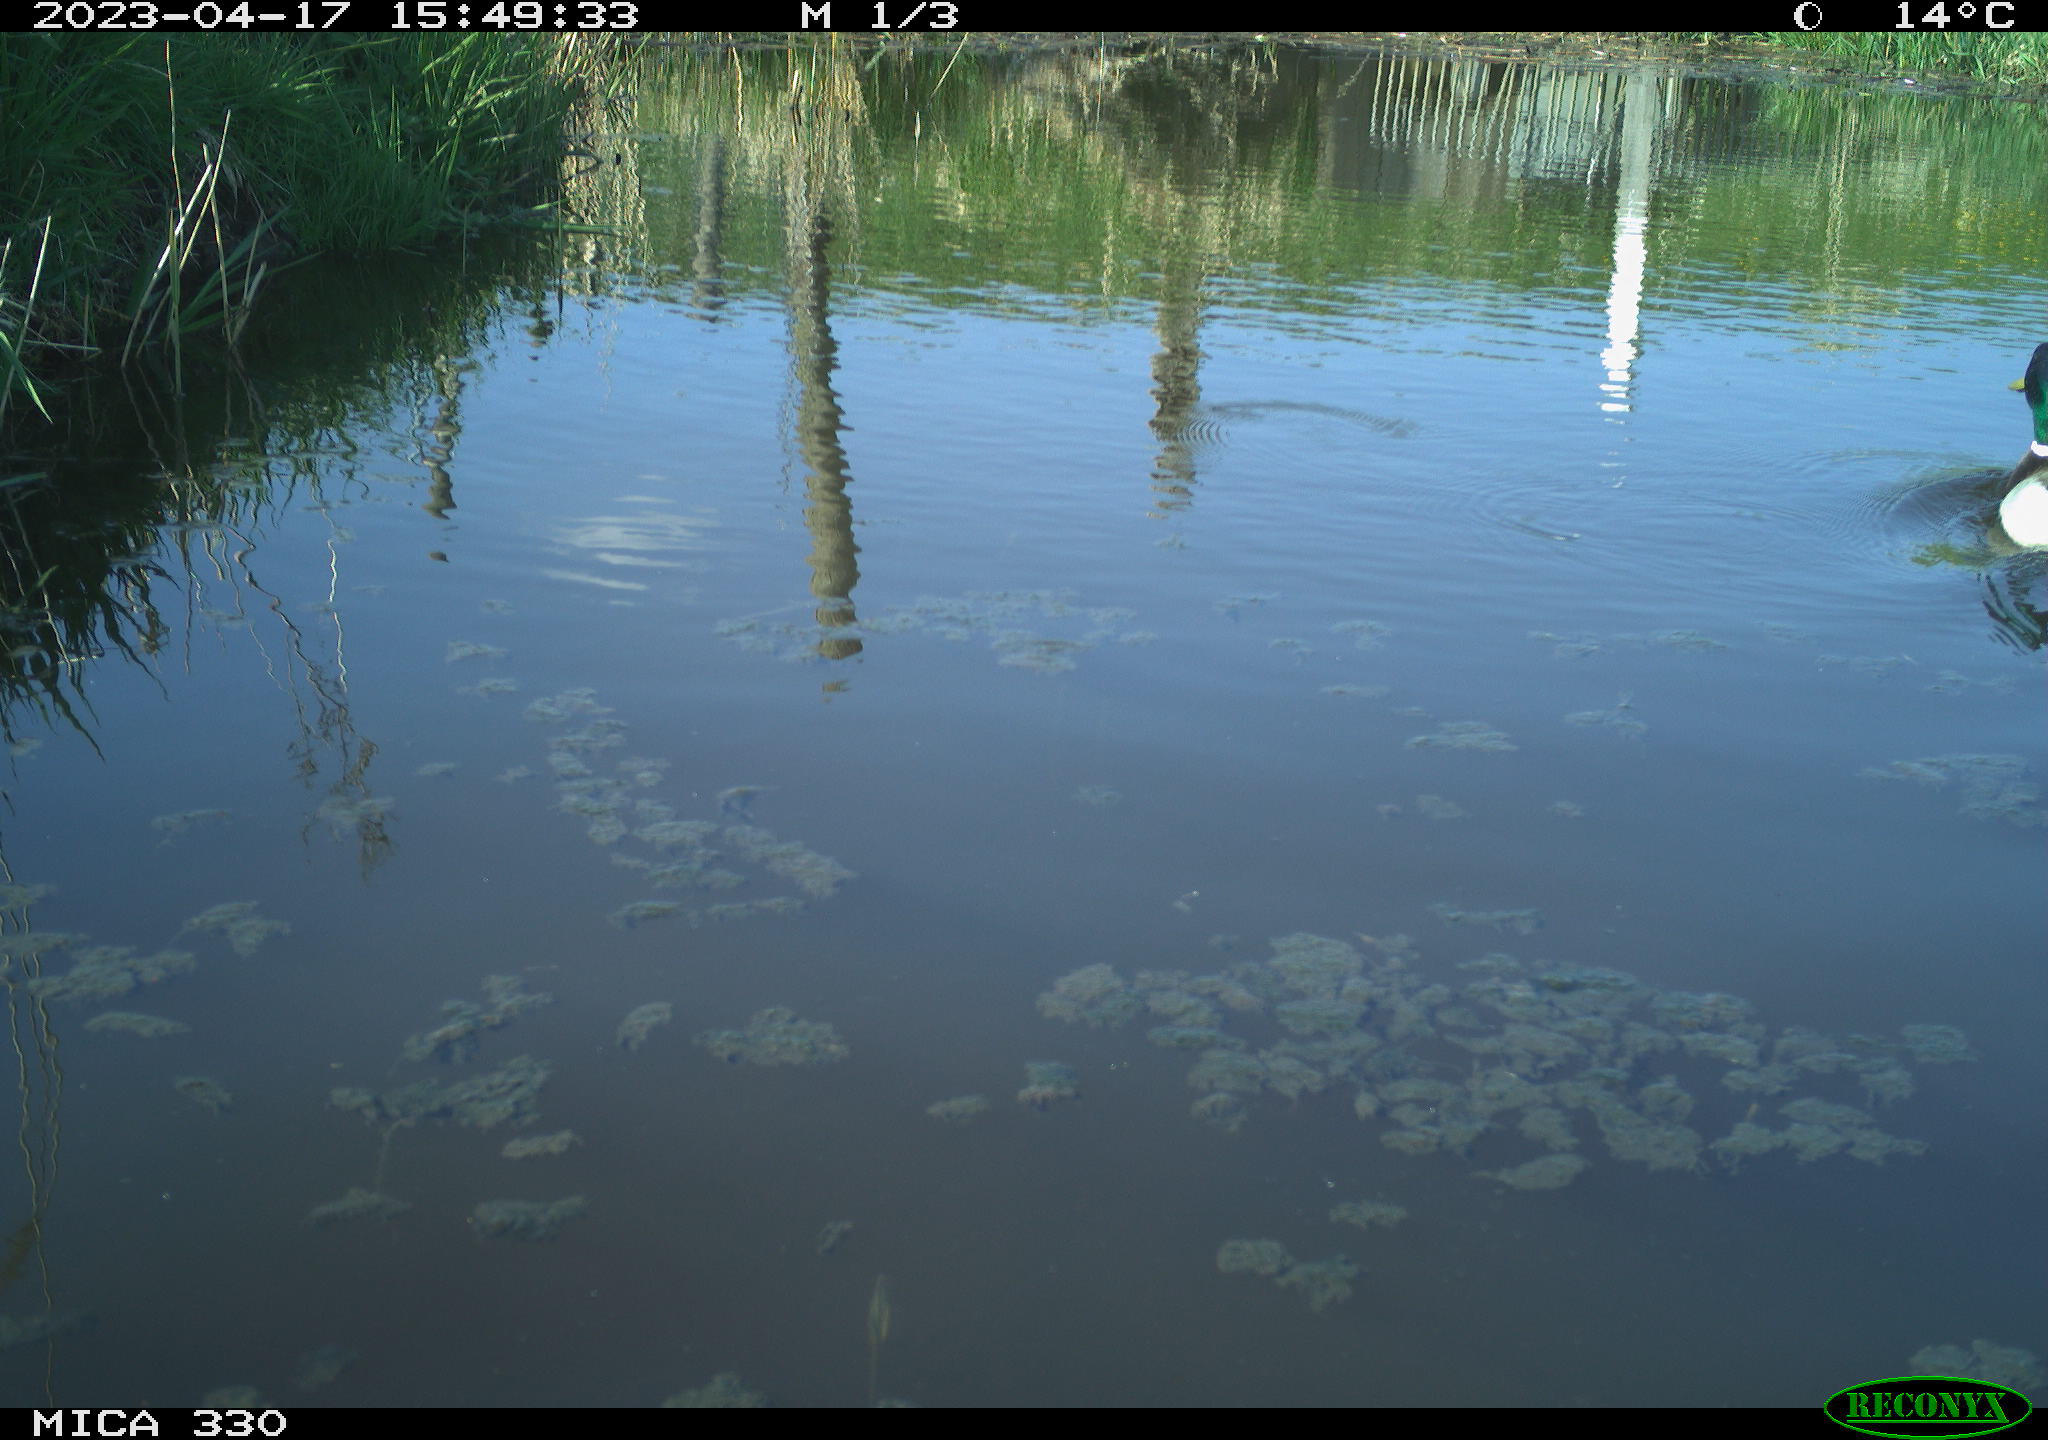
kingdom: Animalia
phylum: Chordata
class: Aves
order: Anseriformes
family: Anatidae
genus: Anas
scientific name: Anas
